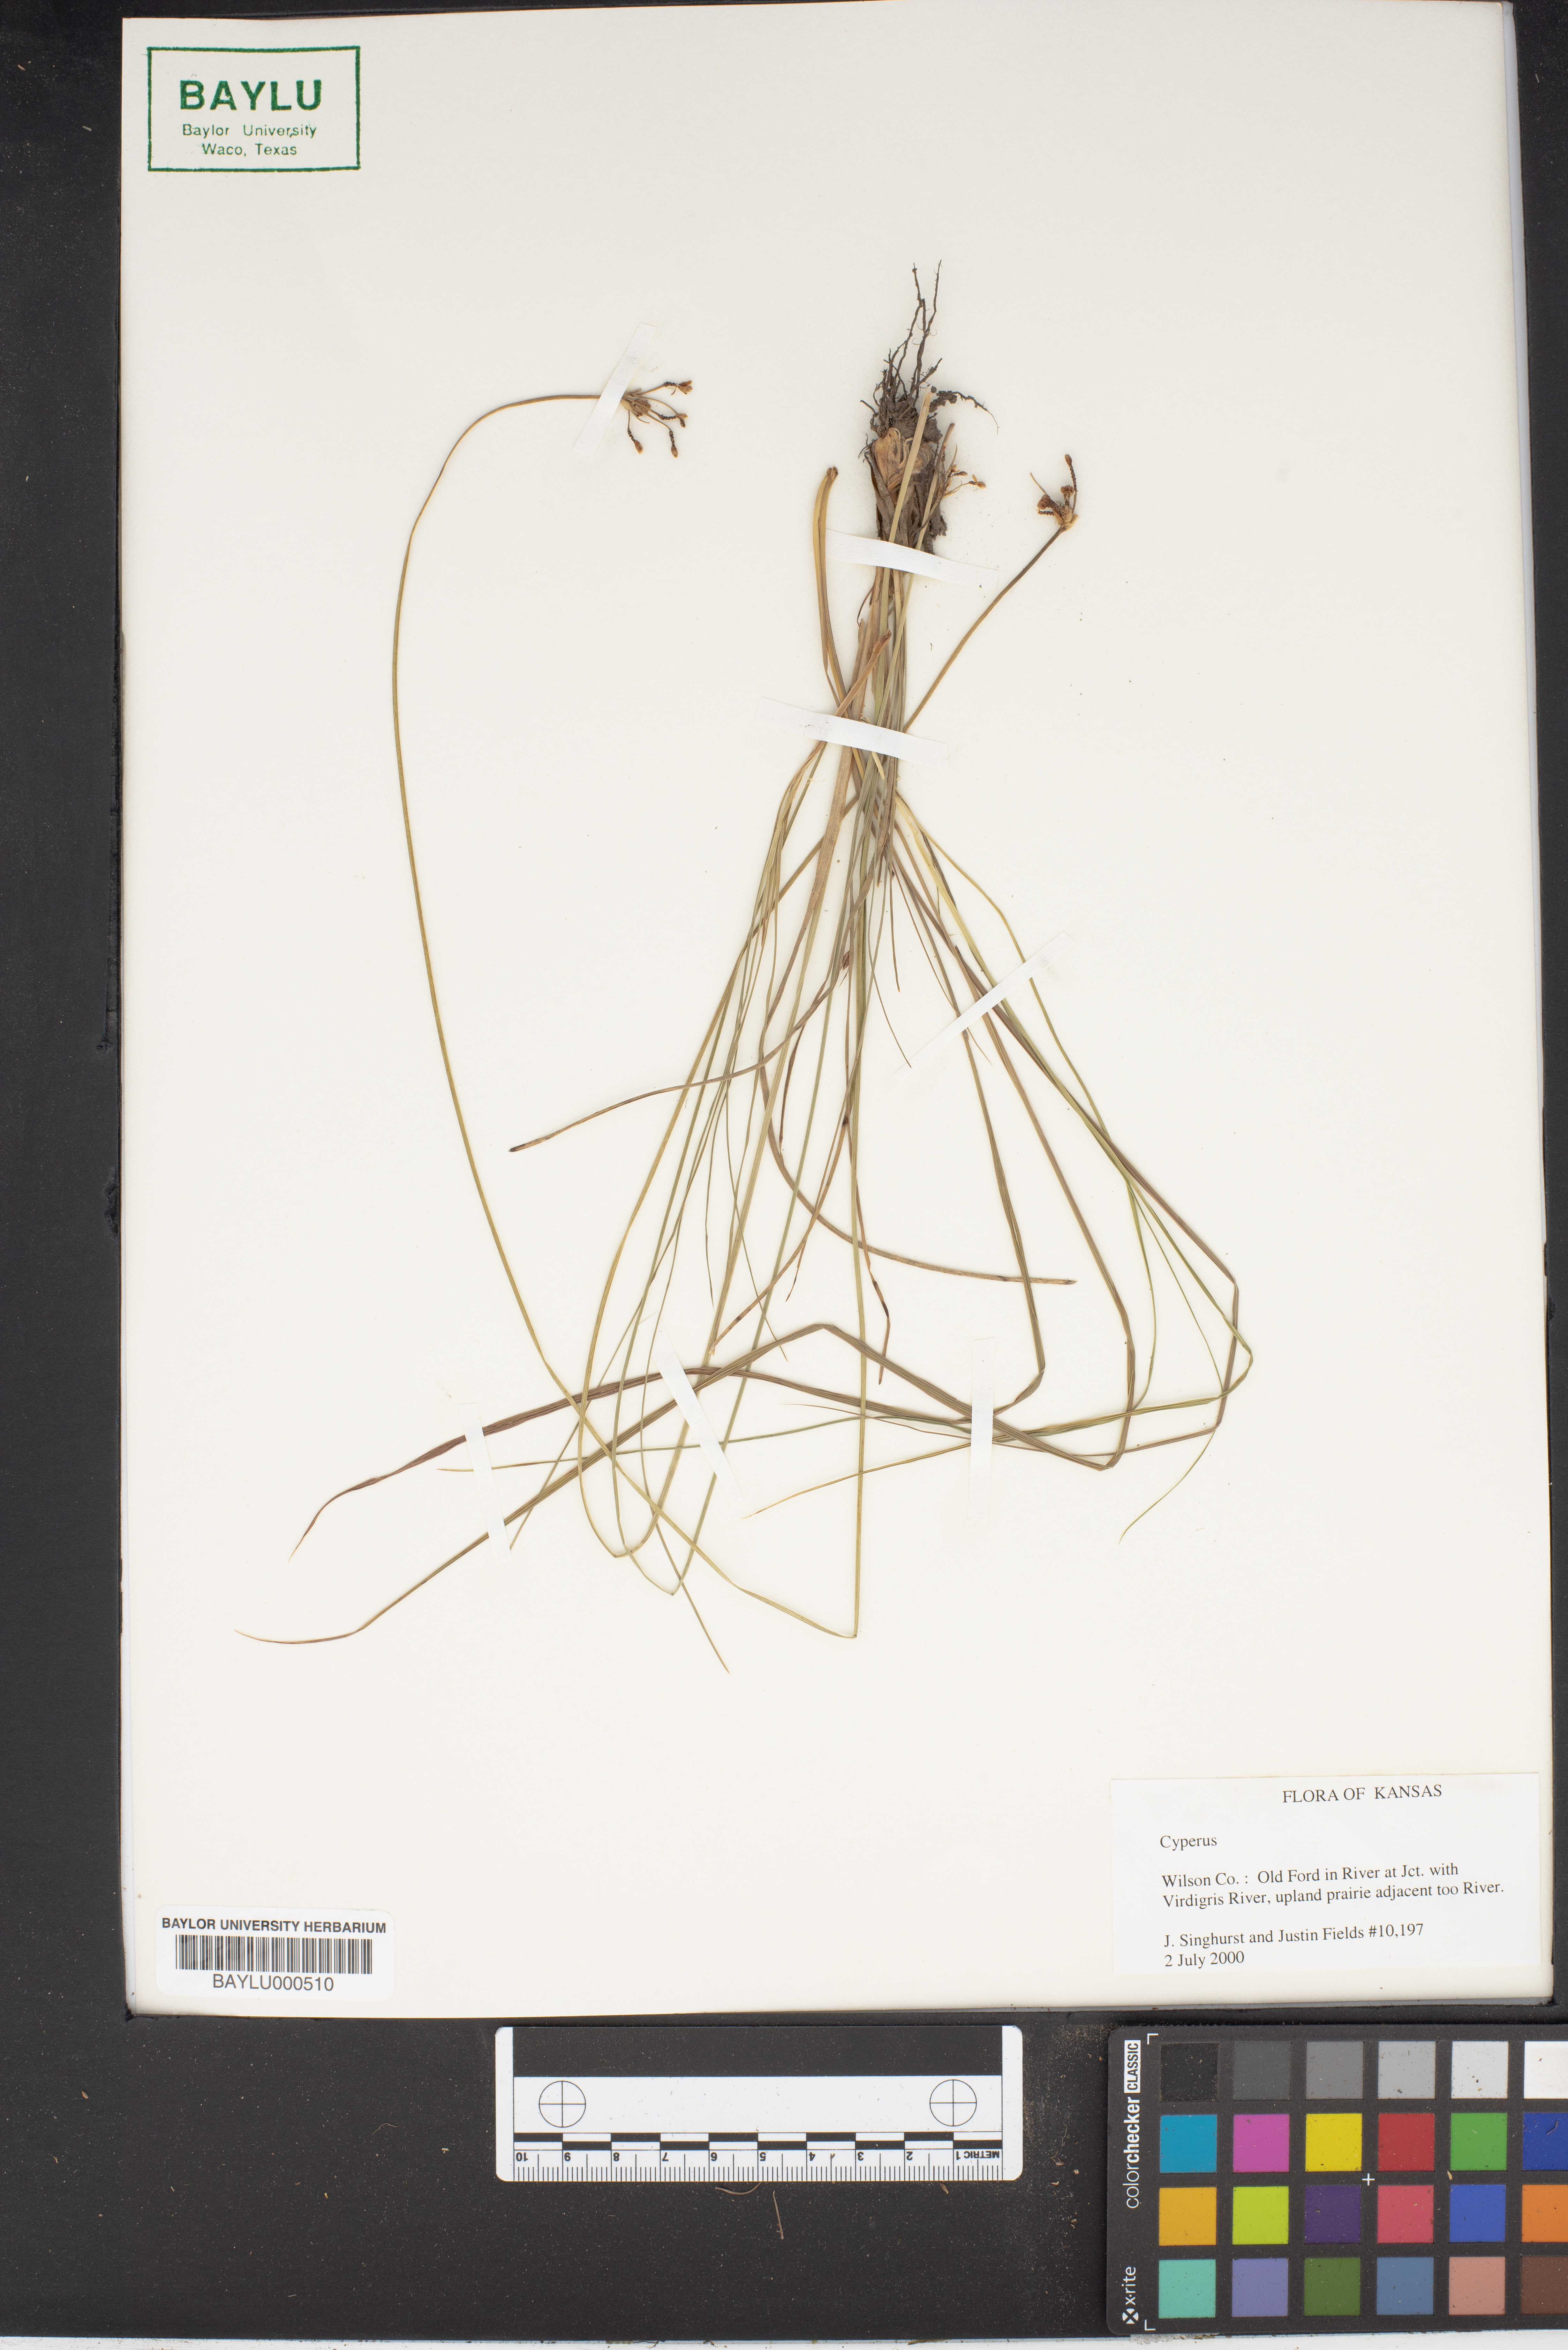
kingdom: Plantae
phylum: Tracheophyta
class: Liliopsida
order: Poales
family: Cyperaceae
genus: Cyperus
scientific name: Cyperus
